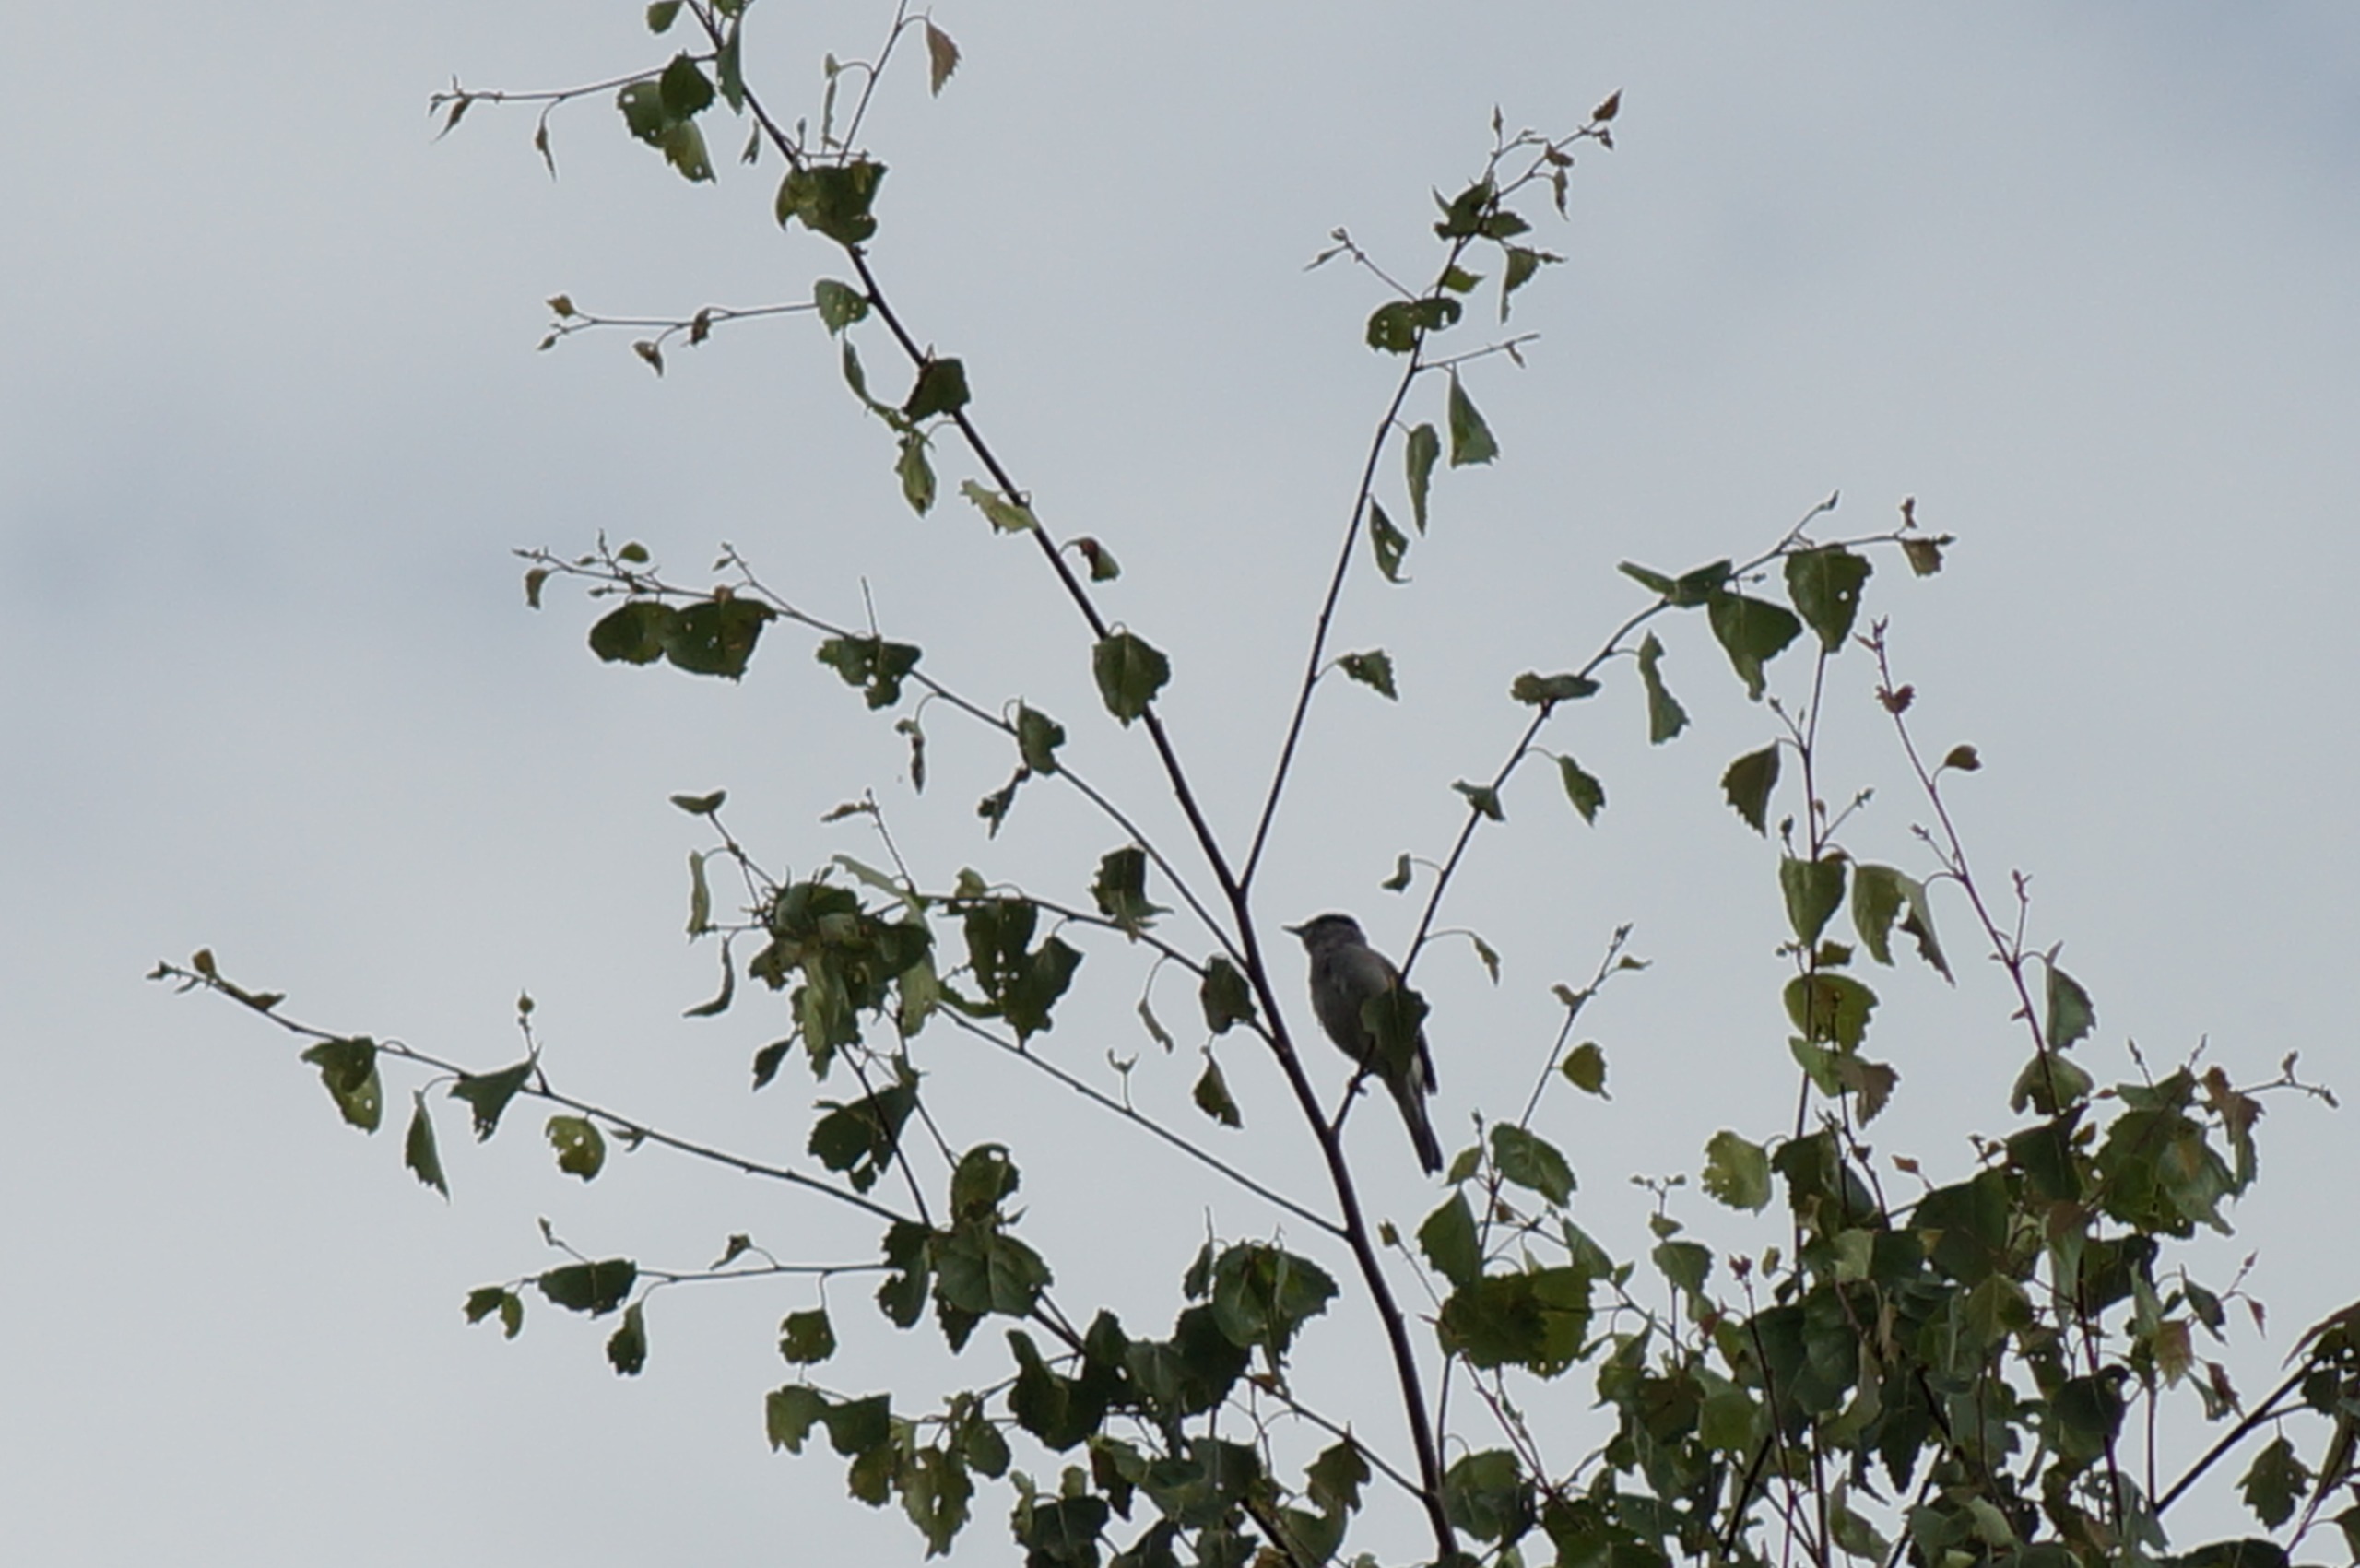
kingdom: Animalia
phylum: Chordata
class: Aves
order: Passeriformes
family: Sylviidae
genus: Sylvia
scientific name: Sylvia atricapilla
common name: Munk
